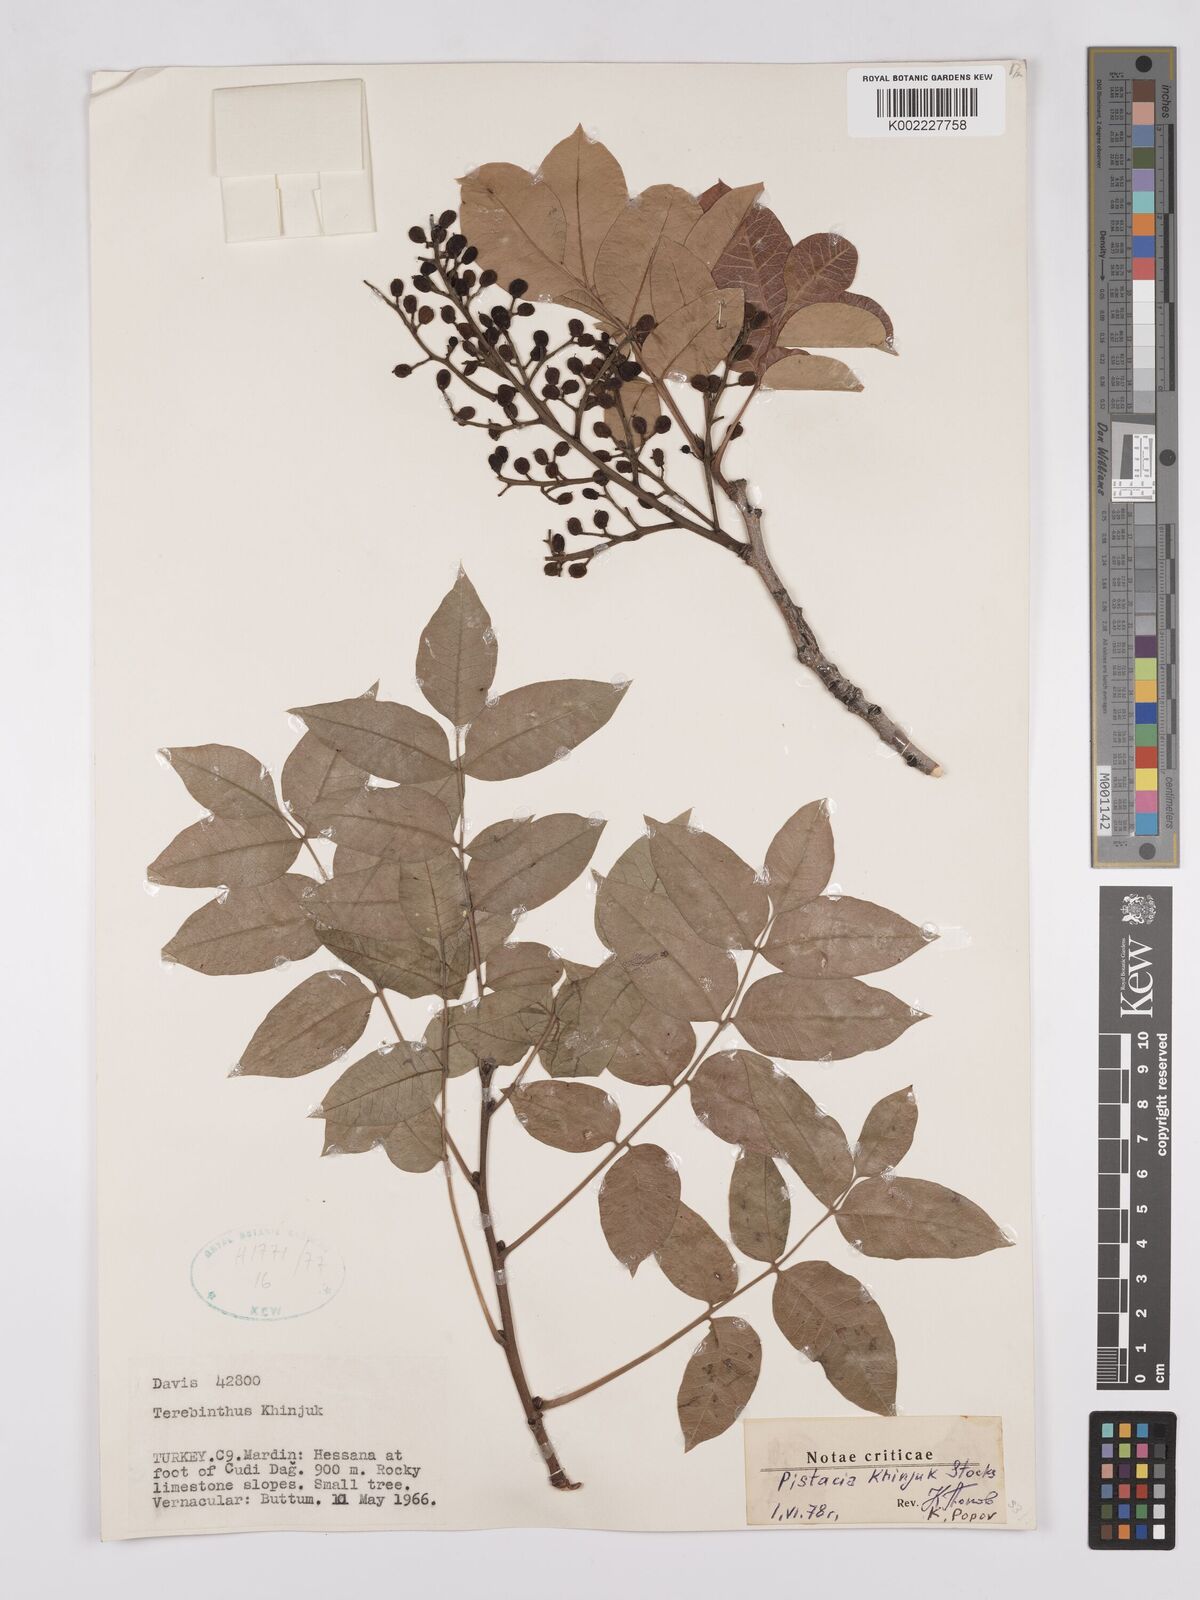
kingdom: Plantae
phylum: Tracheophyta
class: Magnoliopsida
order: Sapindales
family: Anacardiaceae
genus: Pistacia
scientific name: Pistacia
